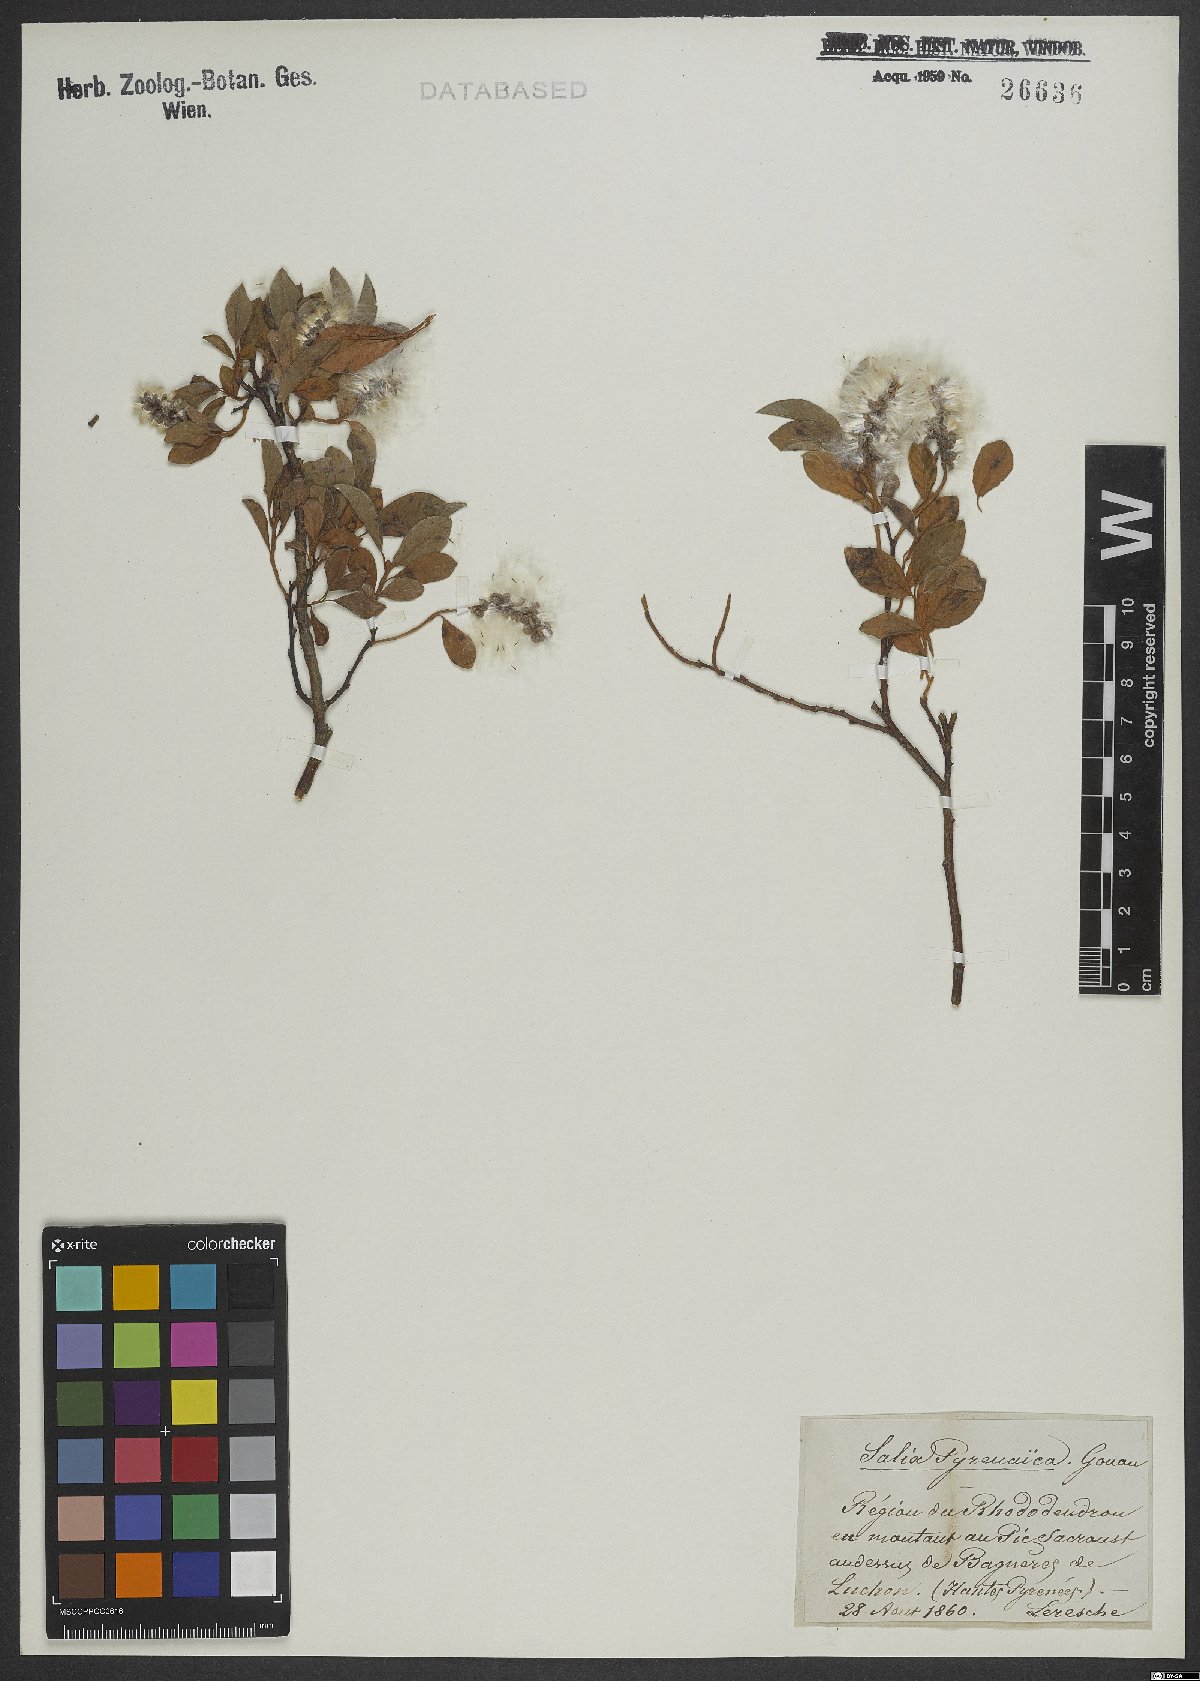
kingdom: Plantae
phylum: Tracheophyta
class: Magnoliopsida
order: Malpighiales
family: Salicaceae
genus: Salix
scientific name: Salix pyrenaica
